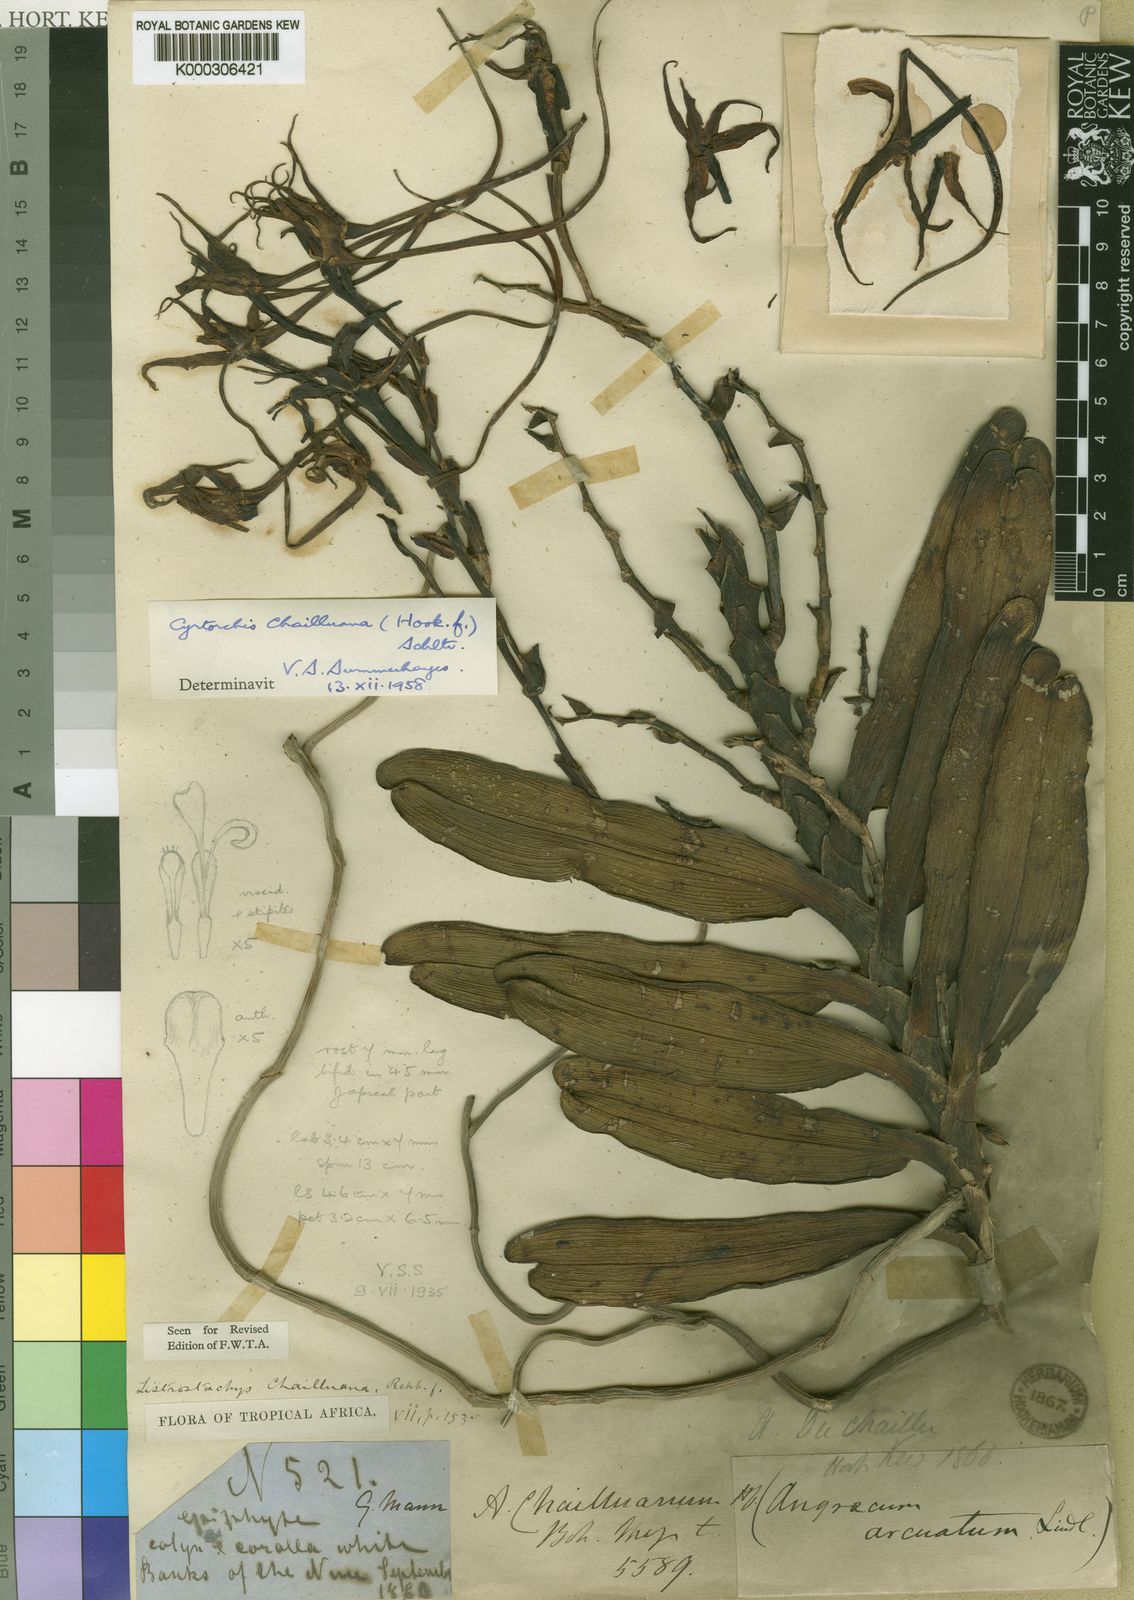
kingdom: Plantae
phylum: Tracheophyta
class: Liliopsida
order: Asparagales
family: Orchidaceae
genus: Cyrtorchis
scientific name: Cyrtorchis chailluana
